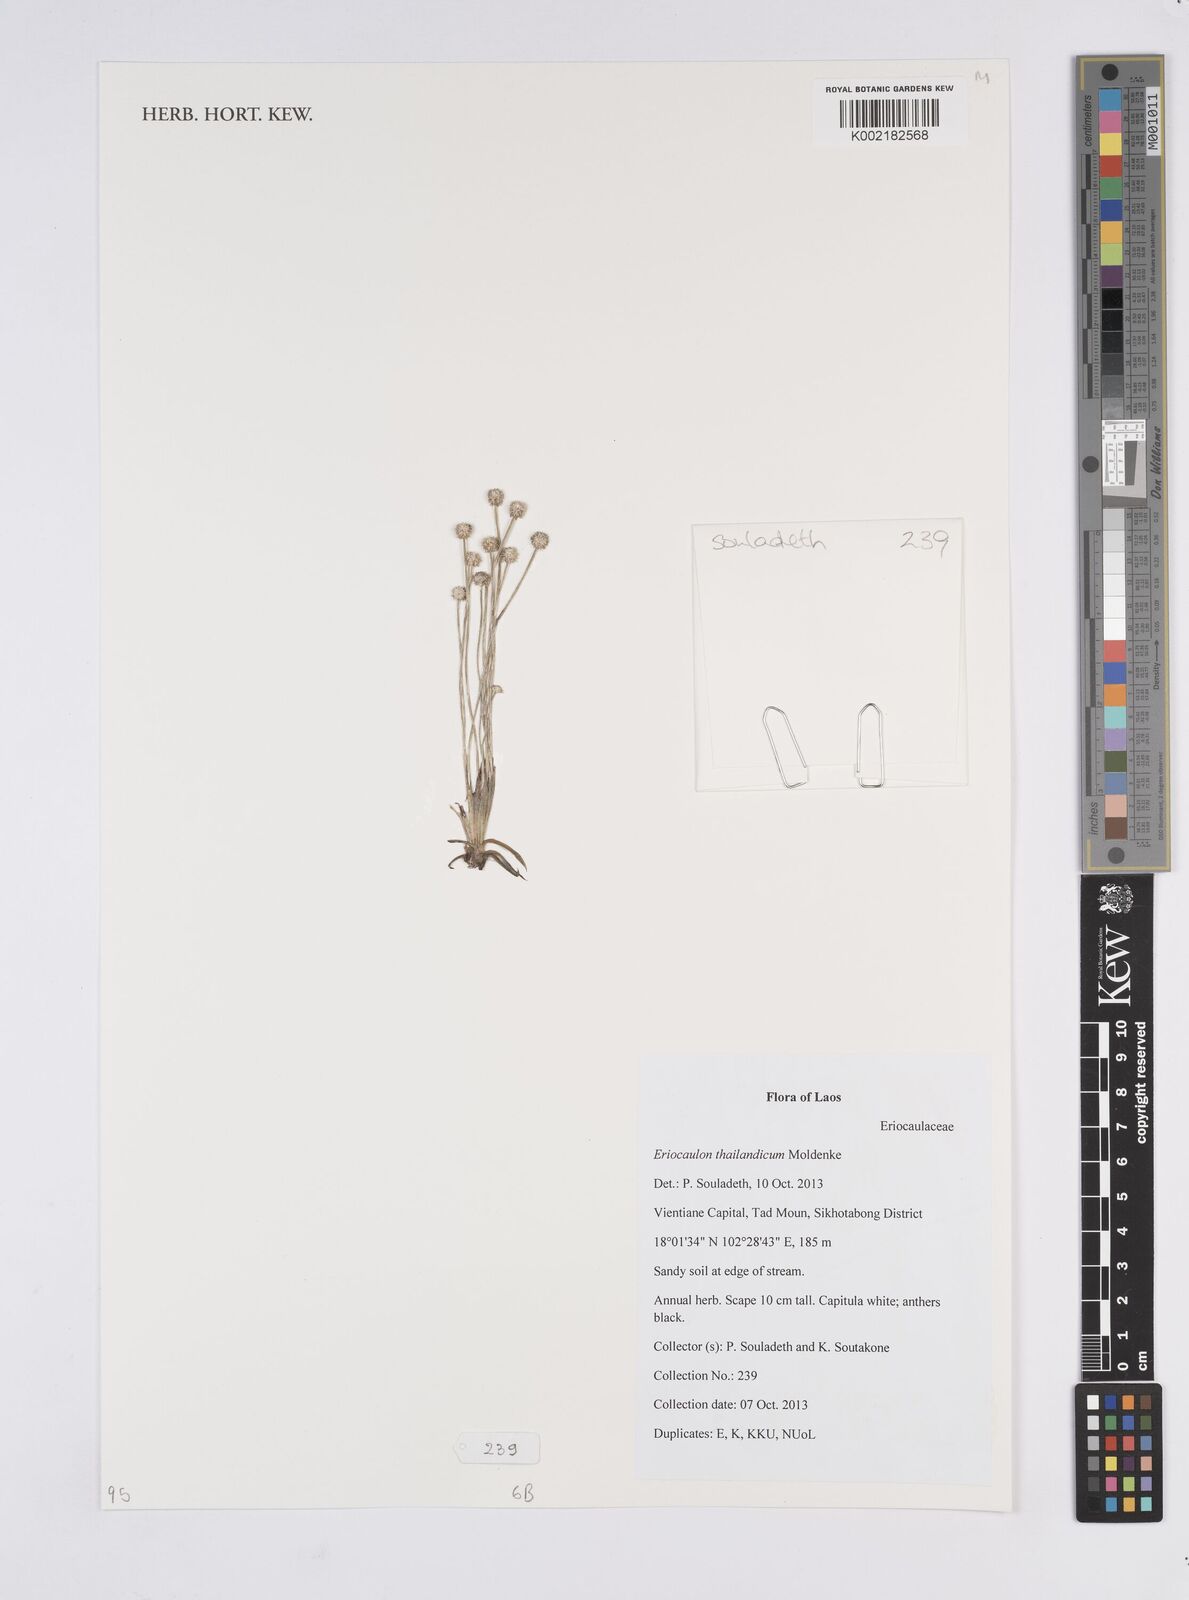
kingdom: Plantae
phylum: Tracheophyta
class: Liliopsida
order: Poales
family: Eriocaulaceae
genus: Eriocaulon
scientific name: Eriocaulon thailandicum
